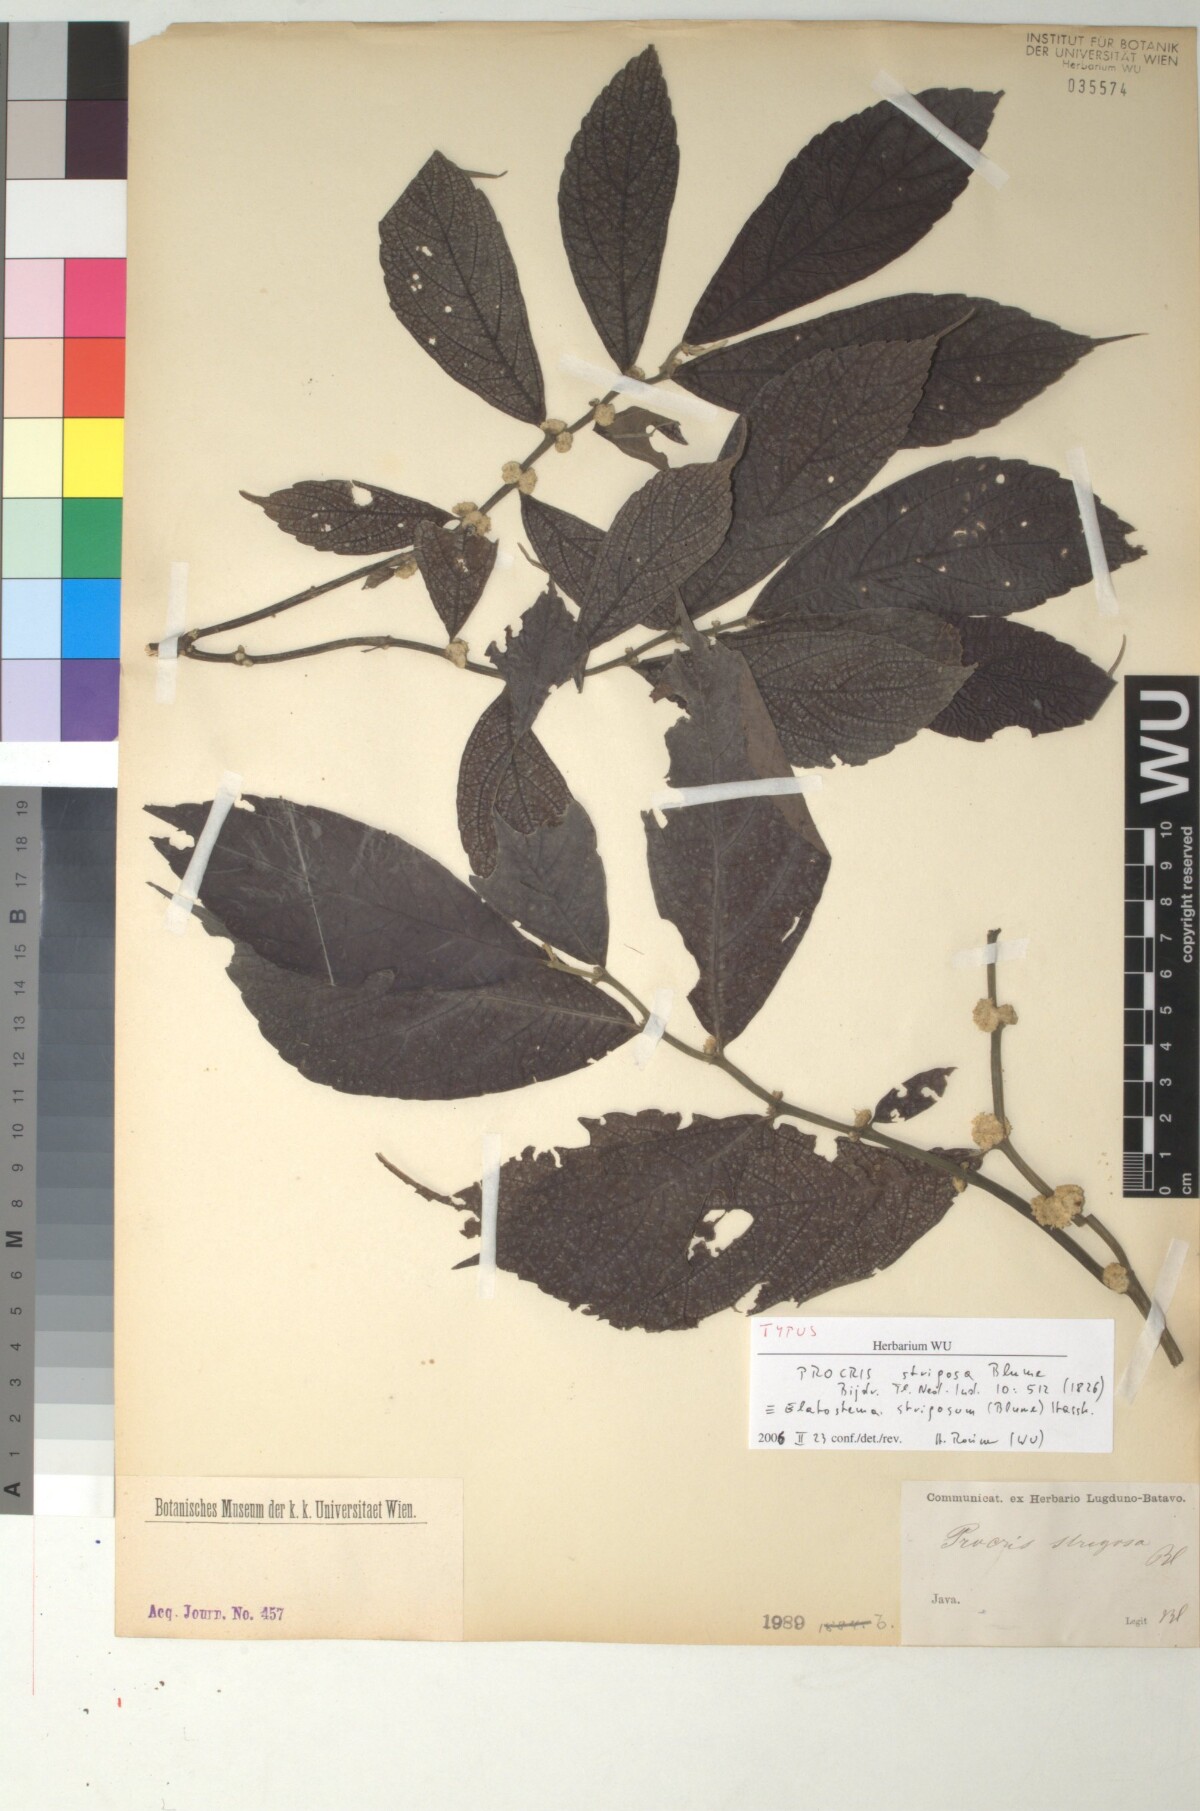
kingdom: Plantae
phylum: Tracheophyta
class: Magnoliopsida
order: Rosales
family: Urticaceae
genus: Elatostema
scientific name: Elatostema strigosum
